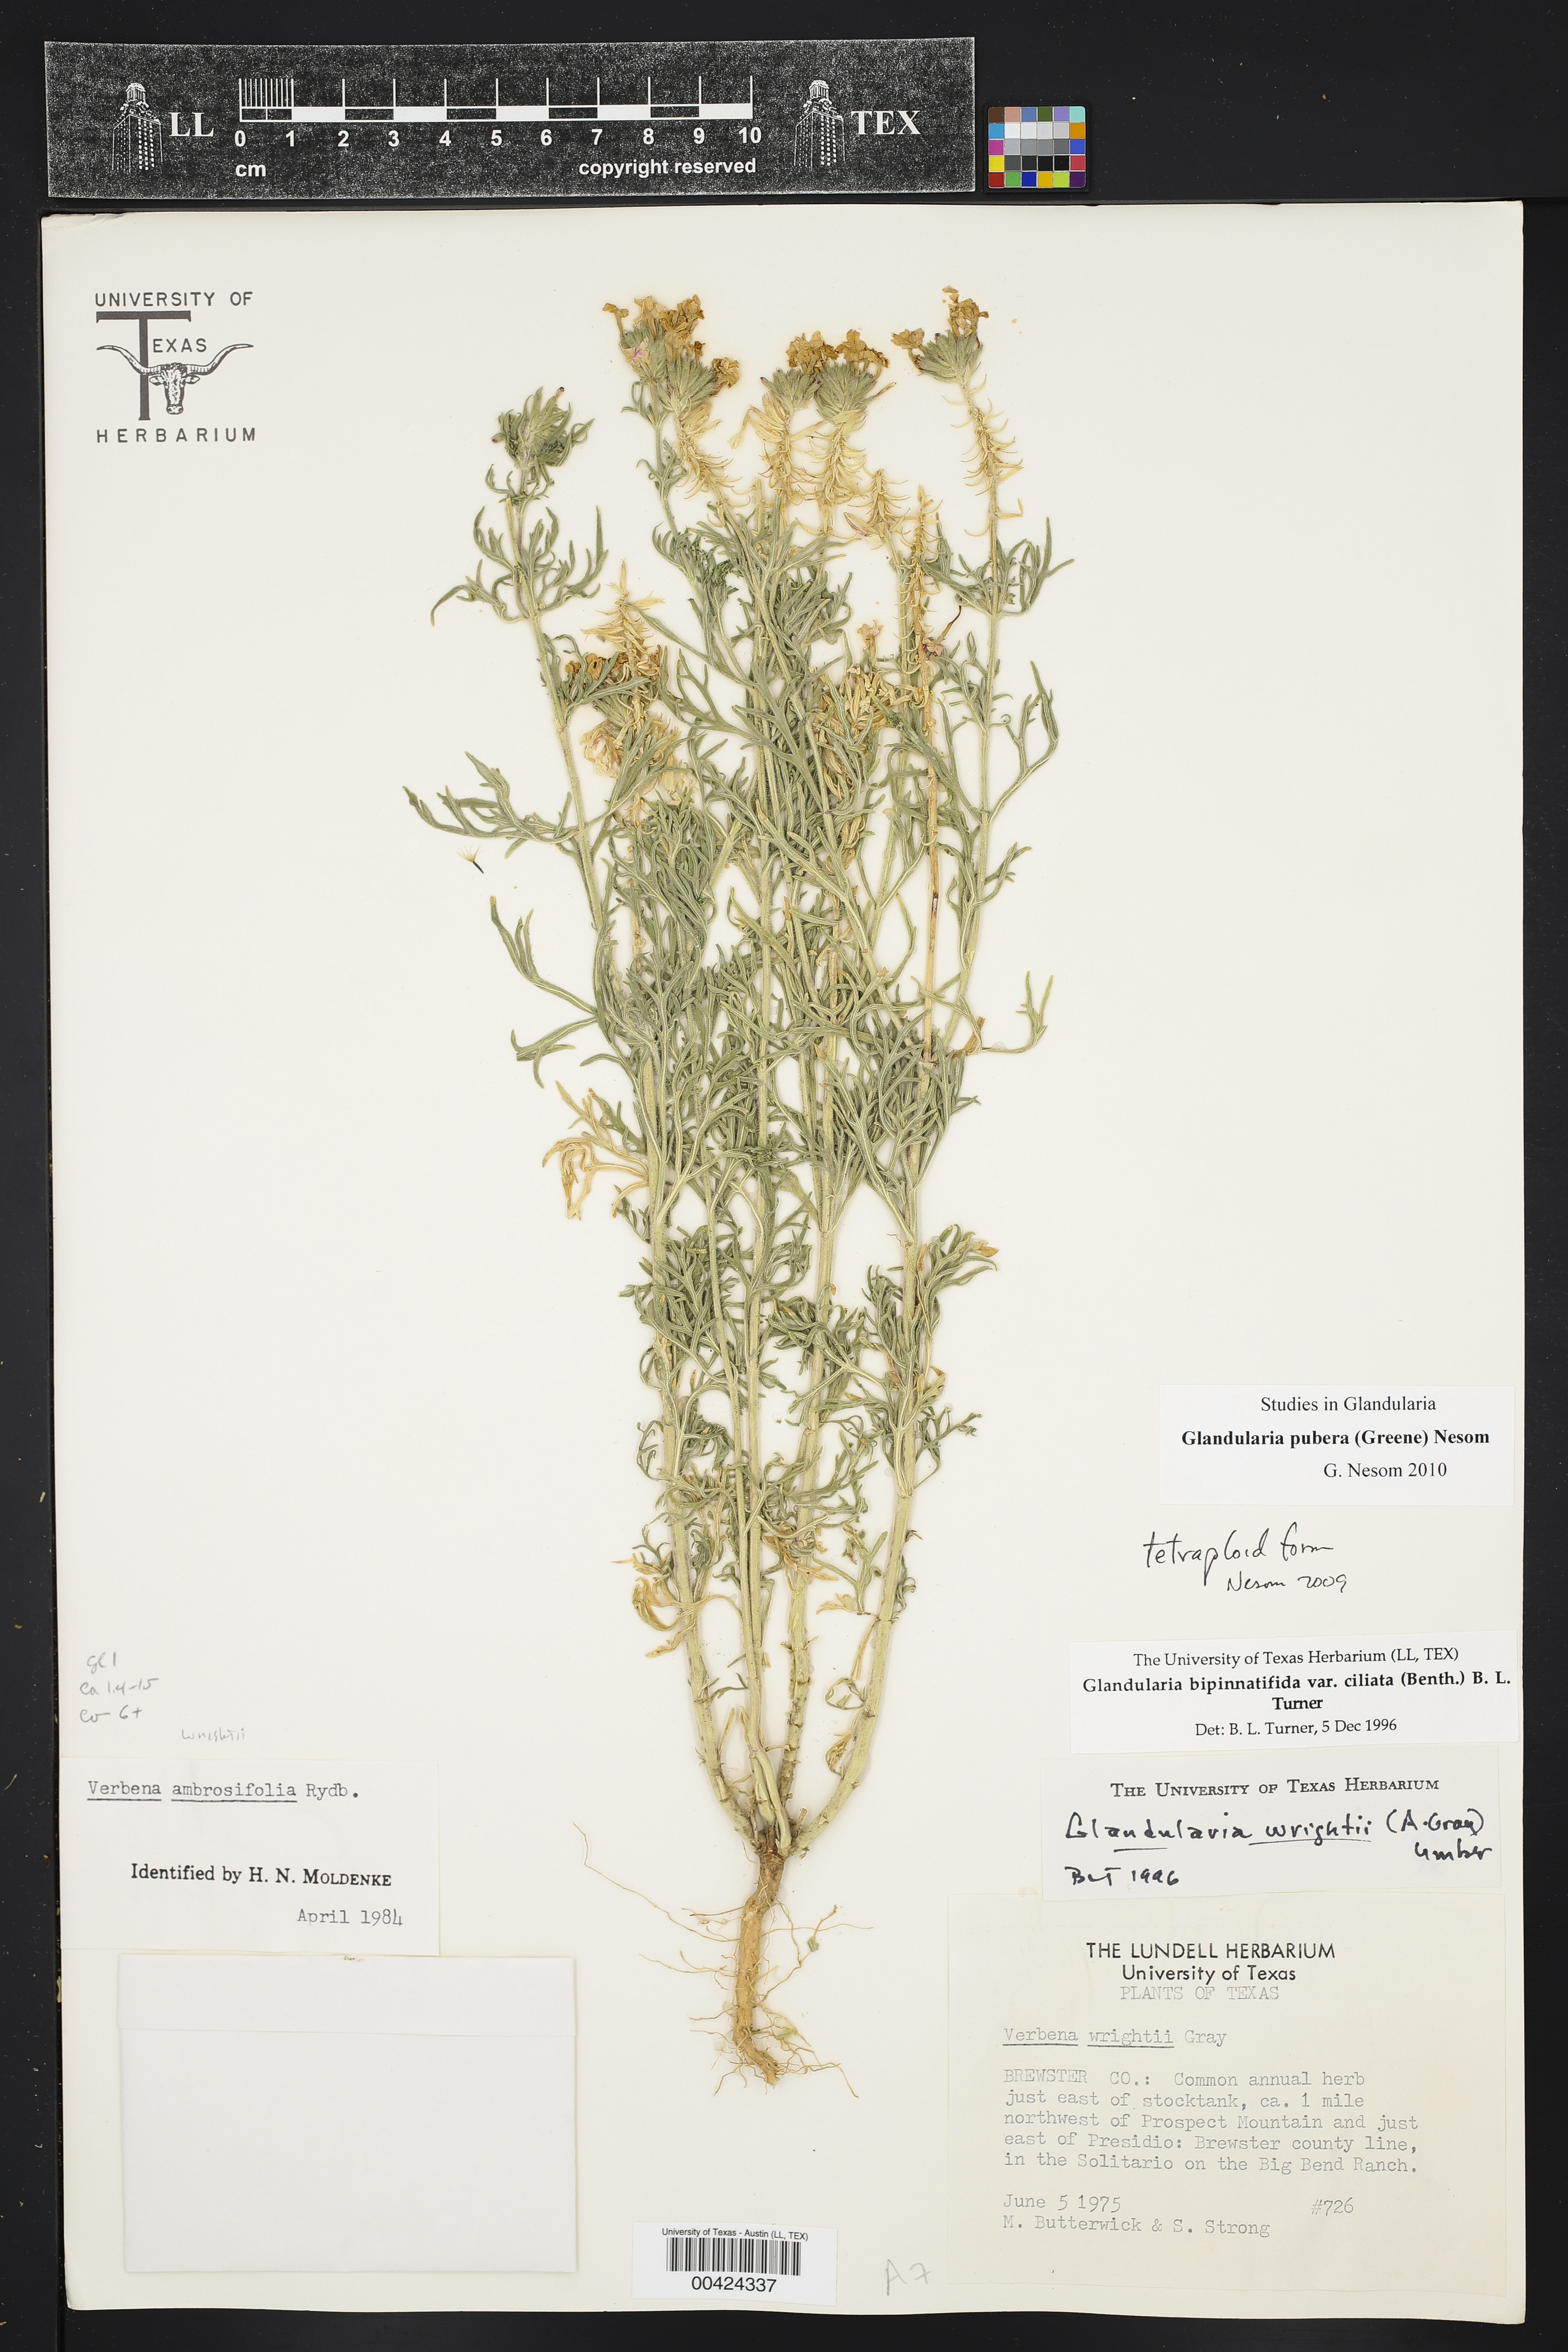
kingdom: Plantae
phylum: Tracheophyta
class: Magnoliopsida
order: Lamiales
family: Verbenaceae
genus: Verbena
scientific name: Verbena bipinnatifida
